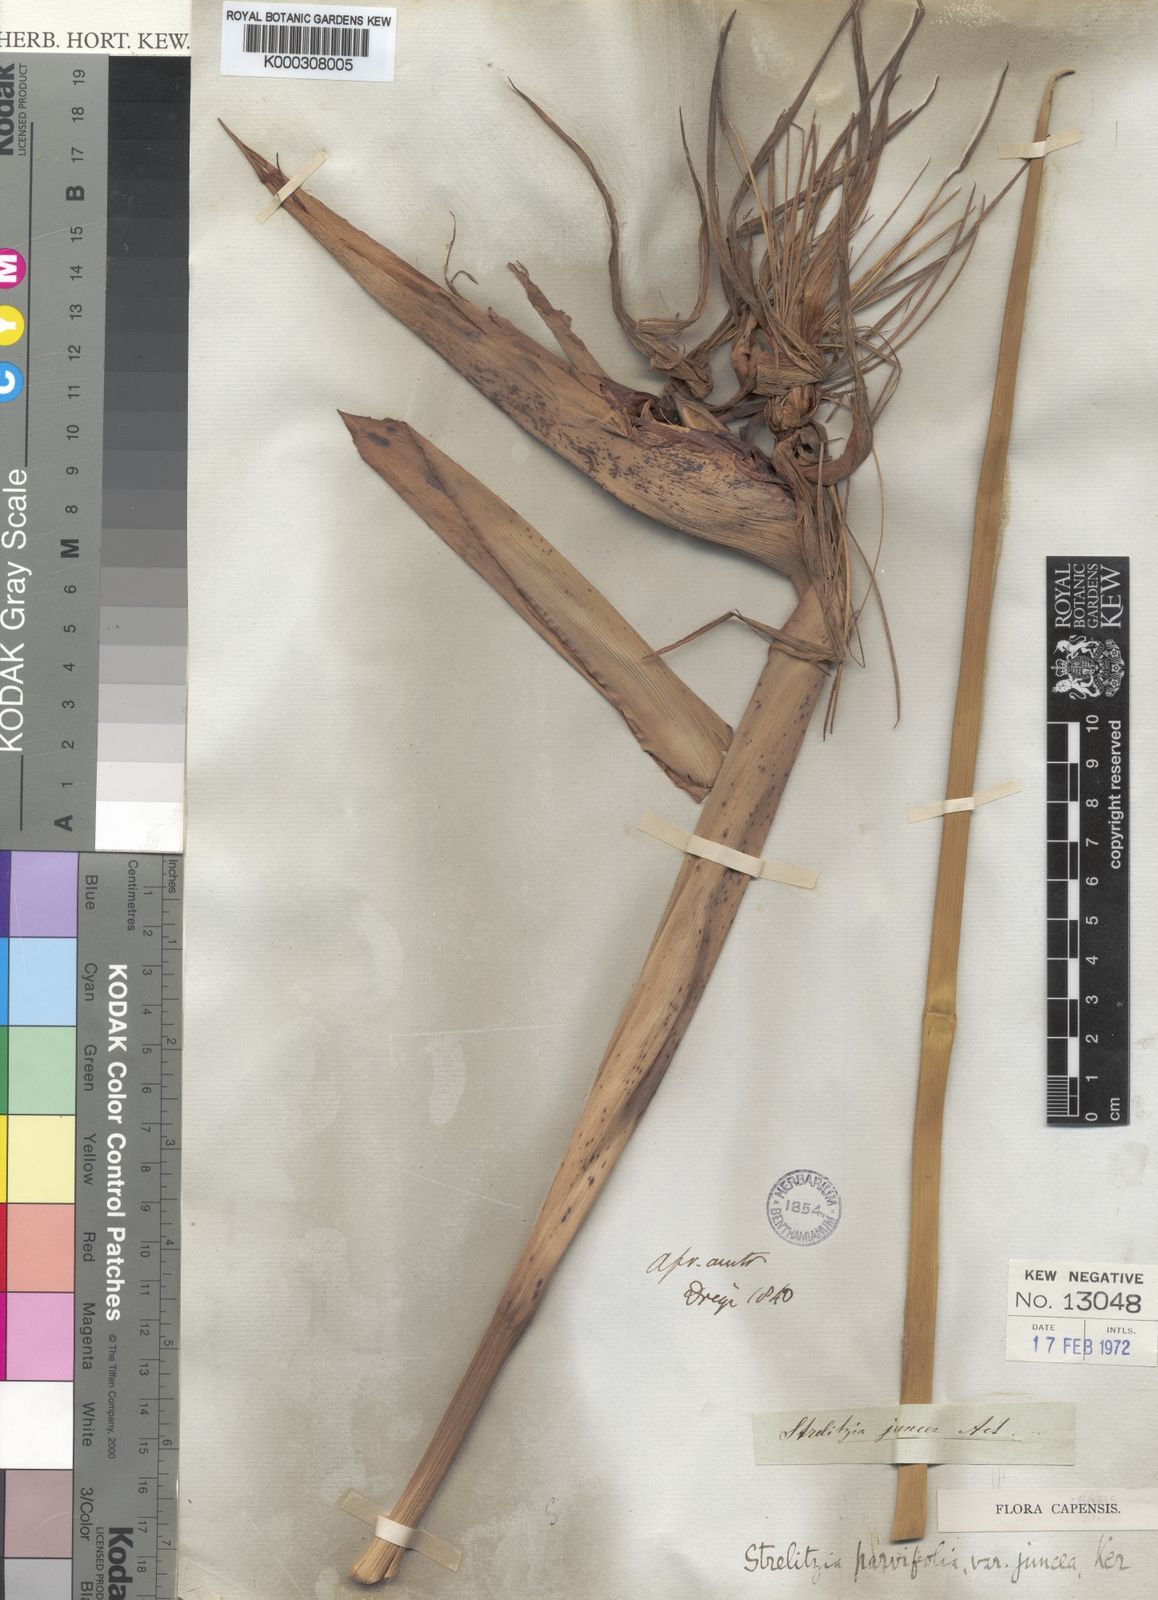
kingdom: Plantae
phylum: Tracheophyta
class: Liliopsida
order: Zingiberales
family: Strelitziaceae
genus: Strelitzia
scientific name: Strelitzia juncea
